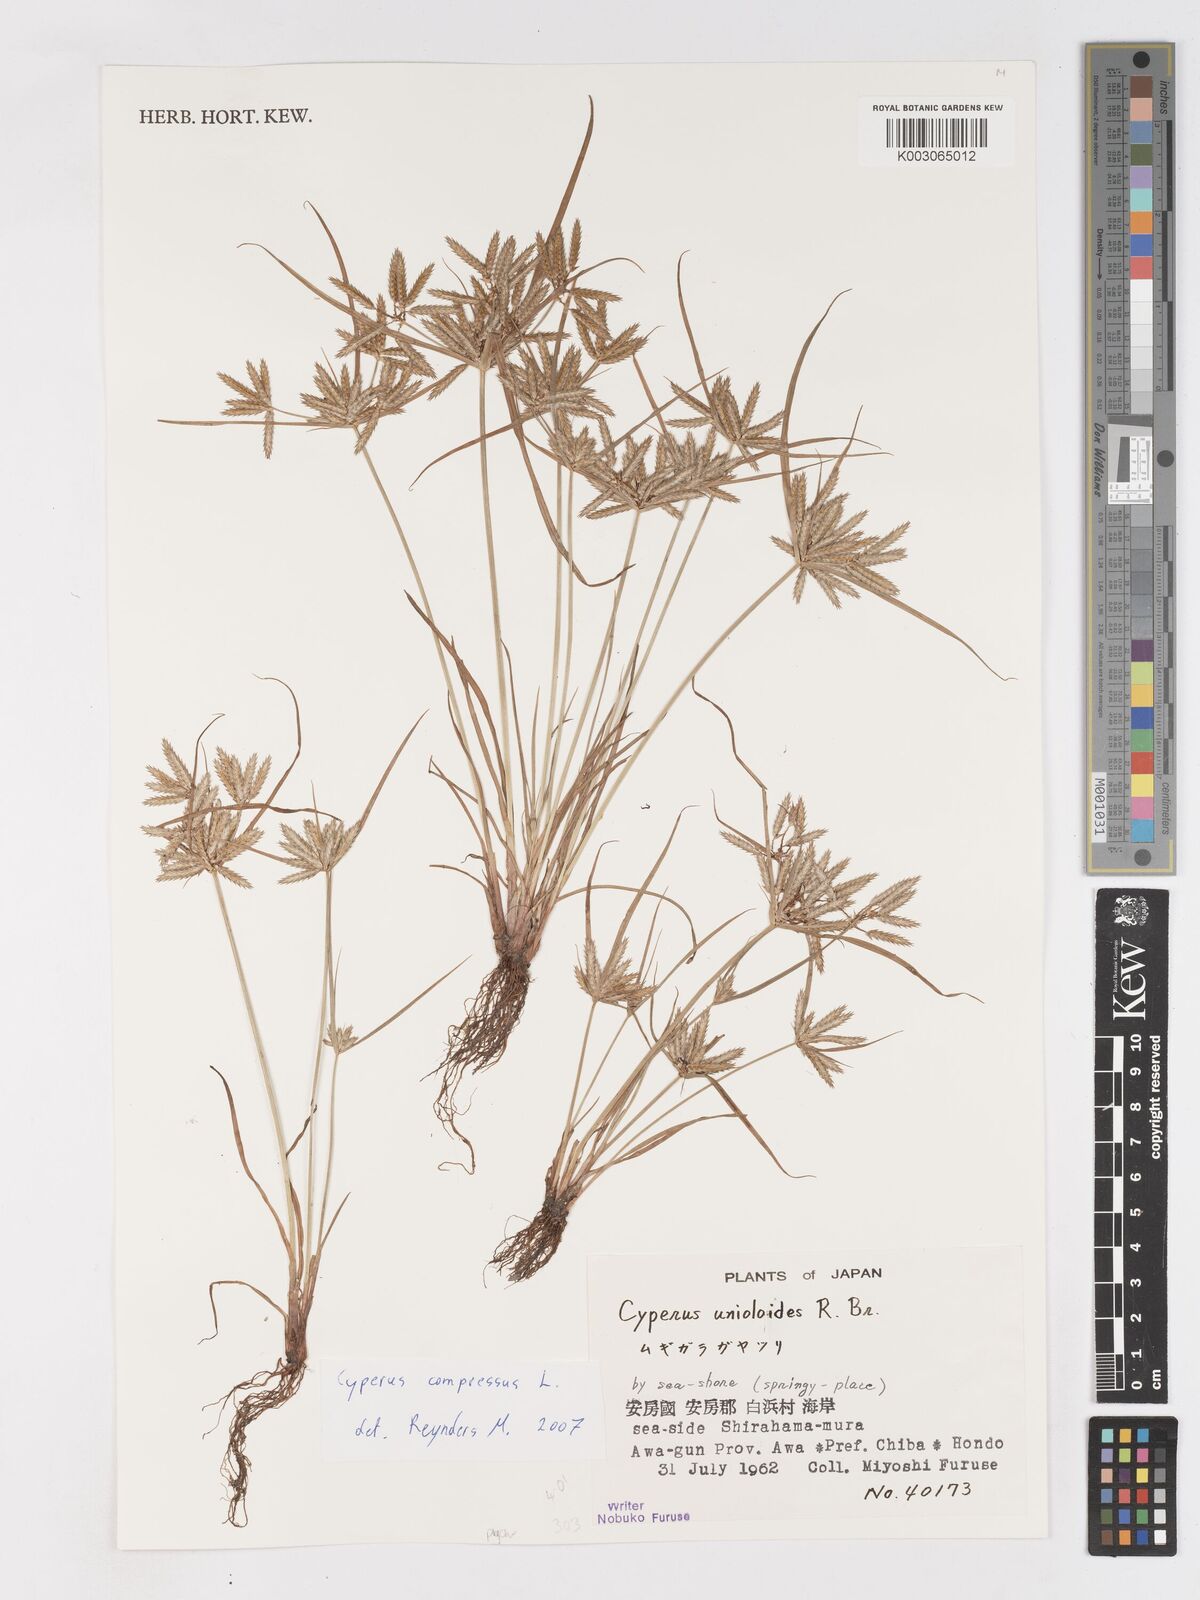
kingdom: Plantae
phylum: Tracheophyta
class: Liliopsida
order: Poales
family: Cyperaceae
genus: Cyperus
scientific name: Cyperus compressus
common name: Poorland flatsedge
